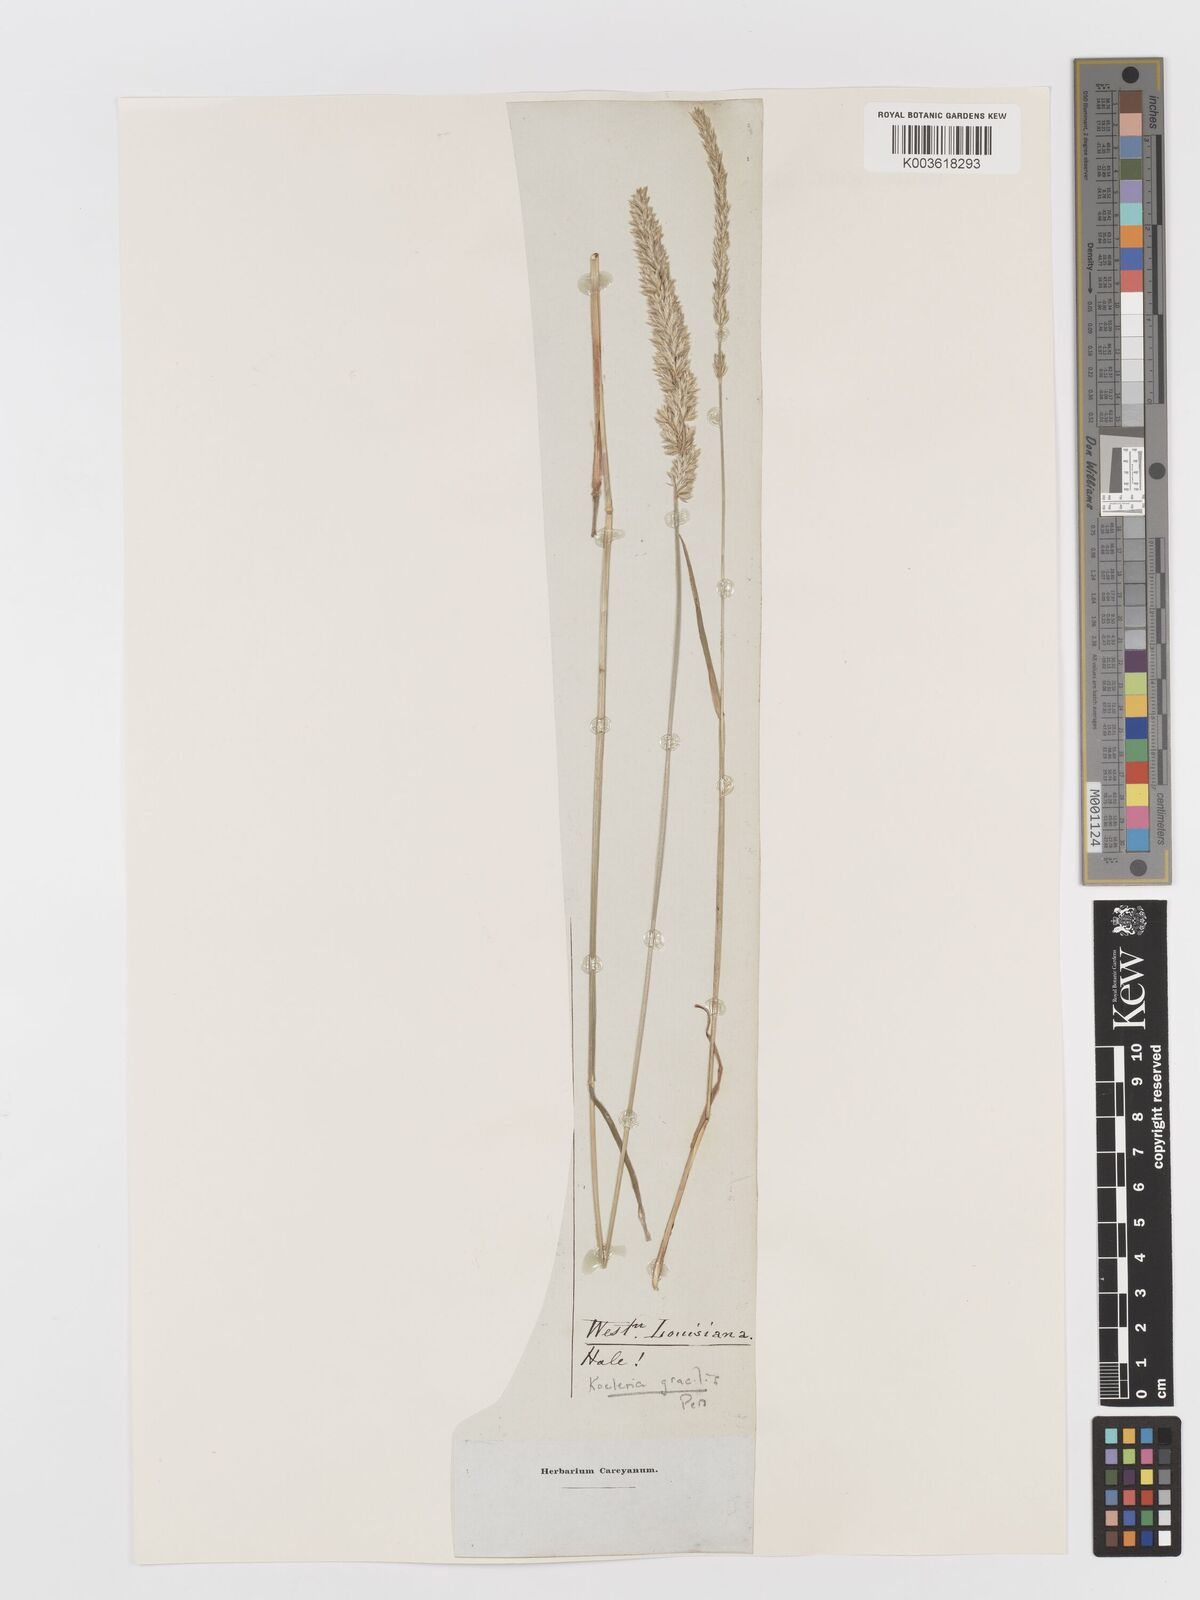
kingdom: Plantae
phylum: Tracheophyta
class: Liliopsida
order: Poales
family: Poaceae
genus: Koeleria
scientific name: Koeleria macrantha
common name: Crested hair-grass
